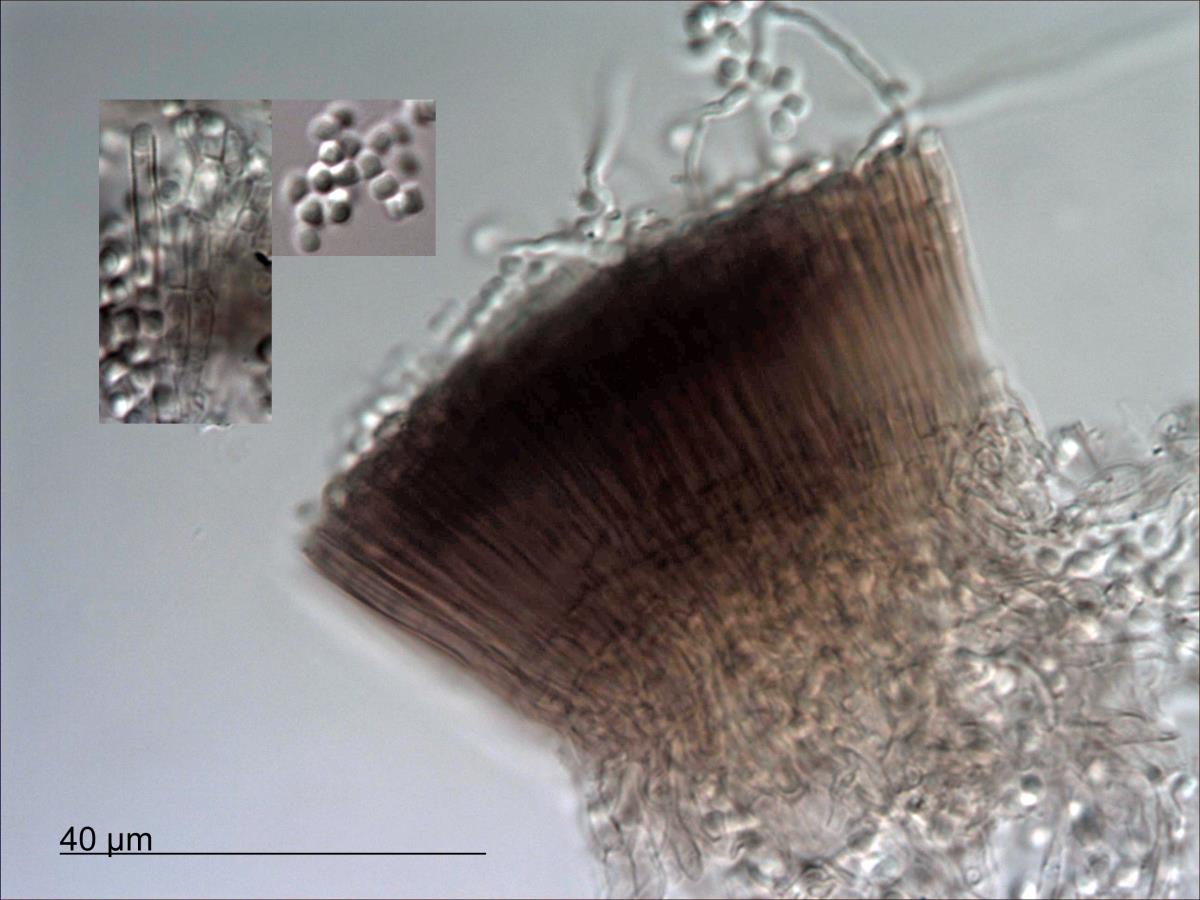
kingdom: Fungi
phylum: Ascomycota
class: Leotiomycetes
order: Helotiales
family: Bloxamiaceae
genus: Bloxamia
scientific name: Bloxamia leucophthalma
